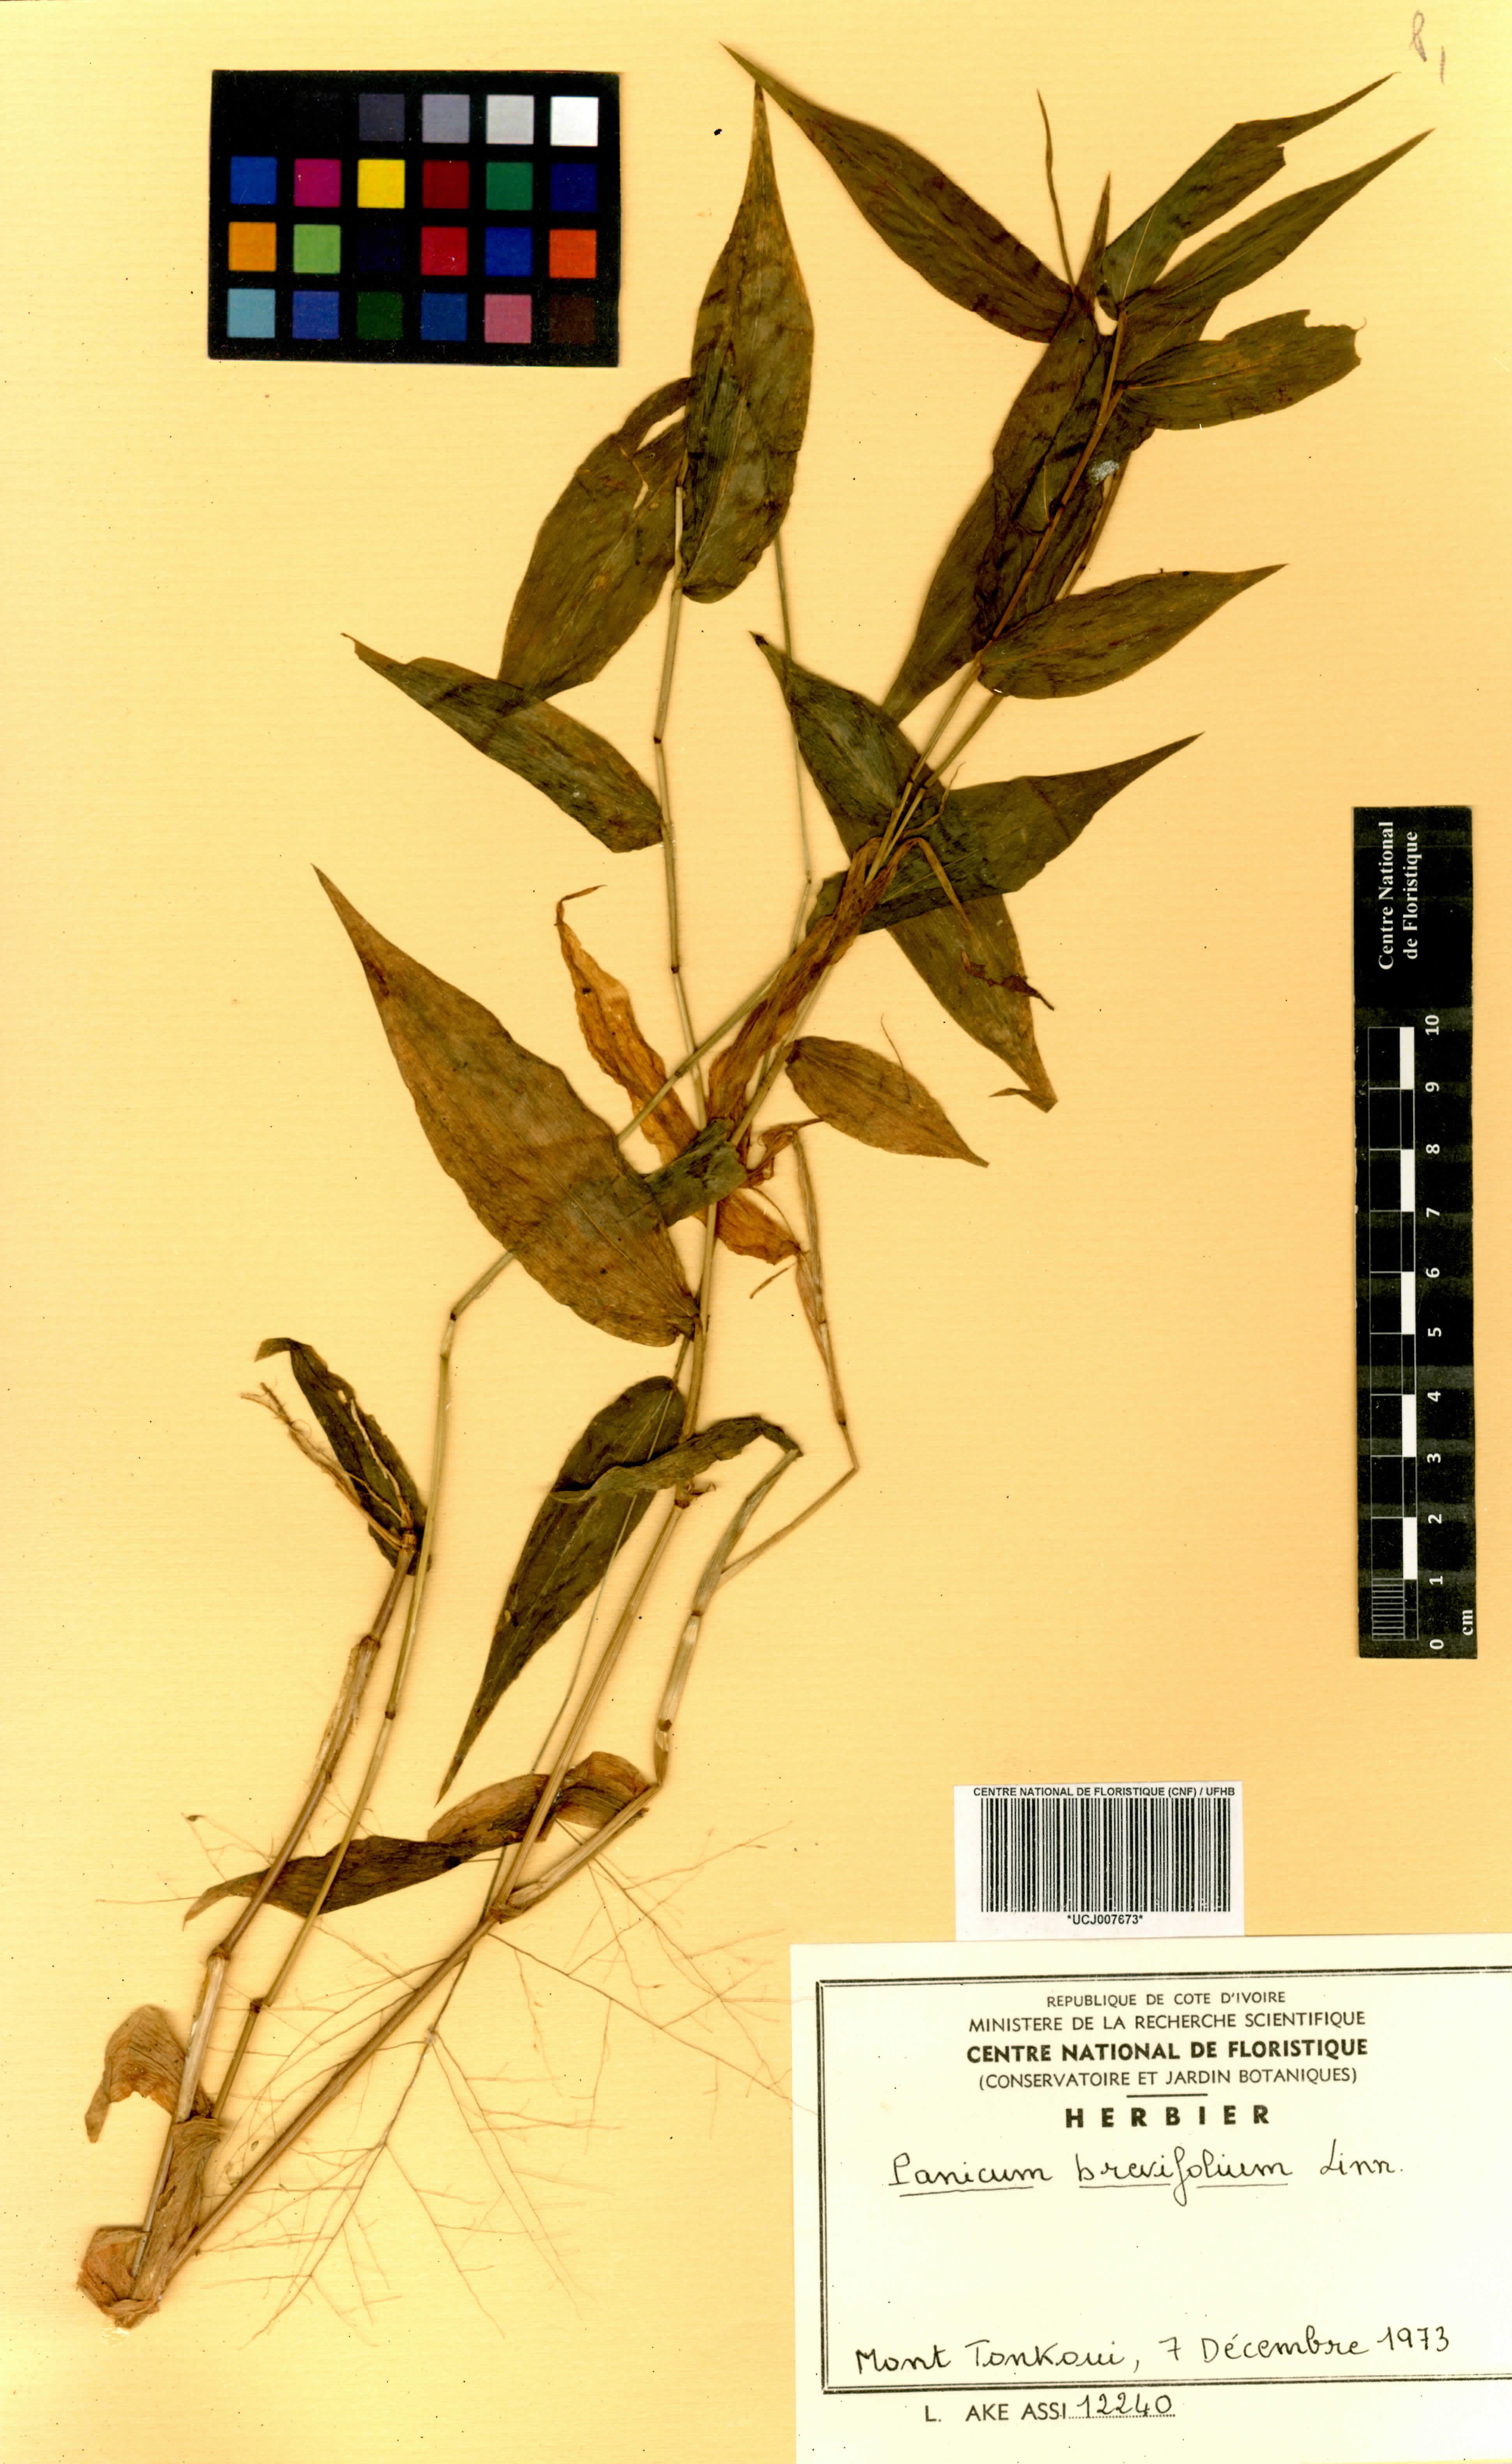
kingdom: Plantae
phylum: Tracheophyta
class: Liliopsida
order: Poales
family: Poaceae
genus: Panicum
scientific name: Panicum brevifolium
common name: Shortleaf panic grass
